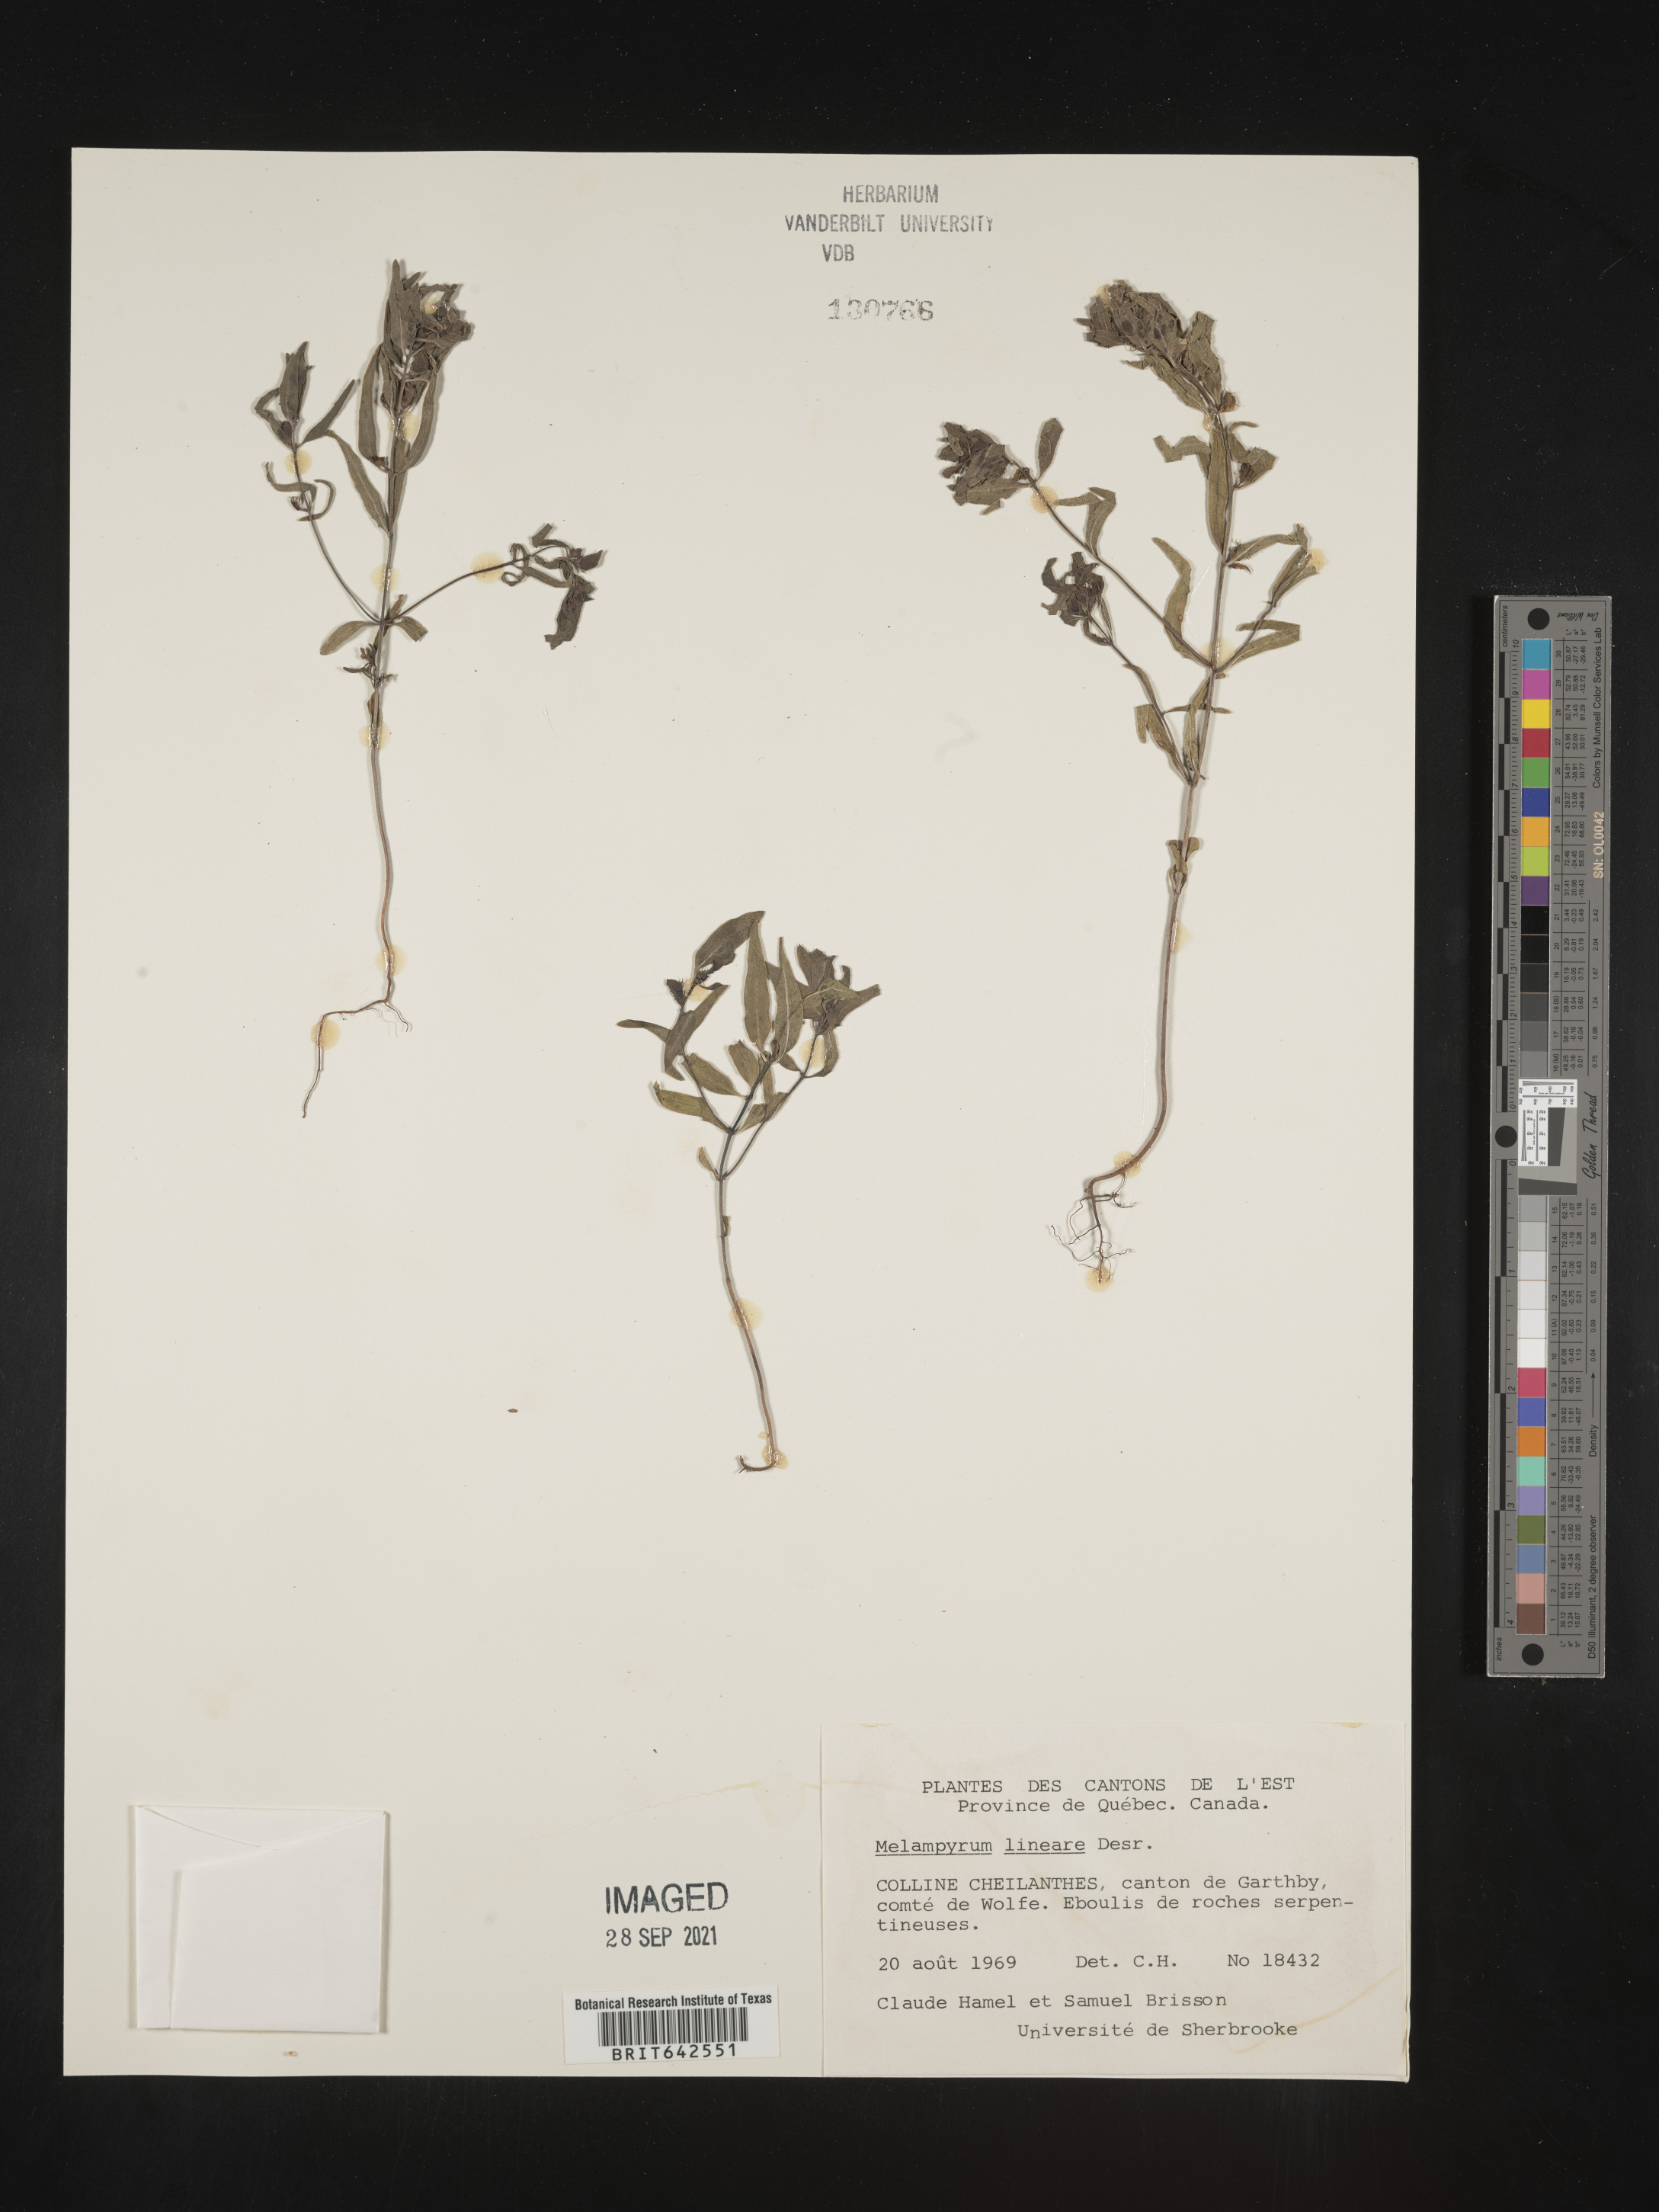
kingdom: Plantae
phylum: Tracheophyta
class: Magnoliopsida
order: Lamiales
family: Orobanchaceae
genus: Melampyrum
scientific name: Melampyrum
